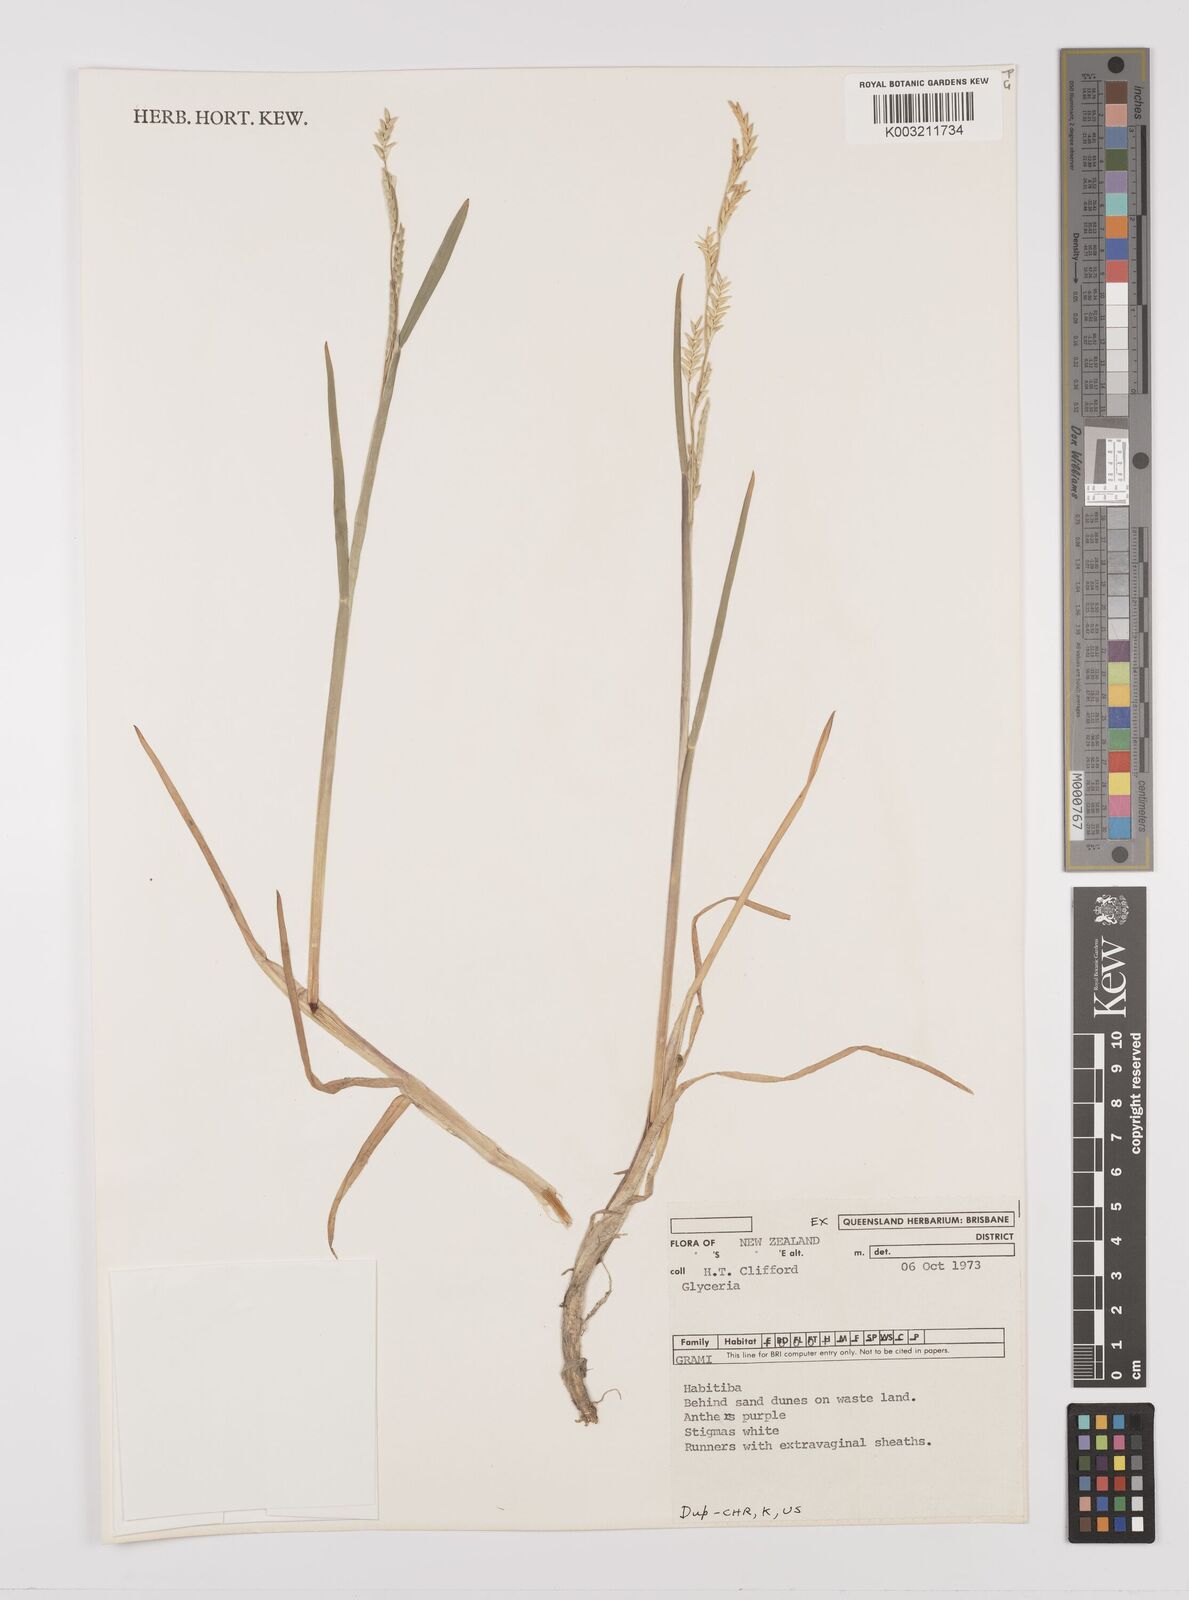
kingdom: Plantae
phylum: Tracheophyta
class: Liliopsida
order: Poales
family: Poaceae
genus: Glyceria
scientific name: Glyceria
